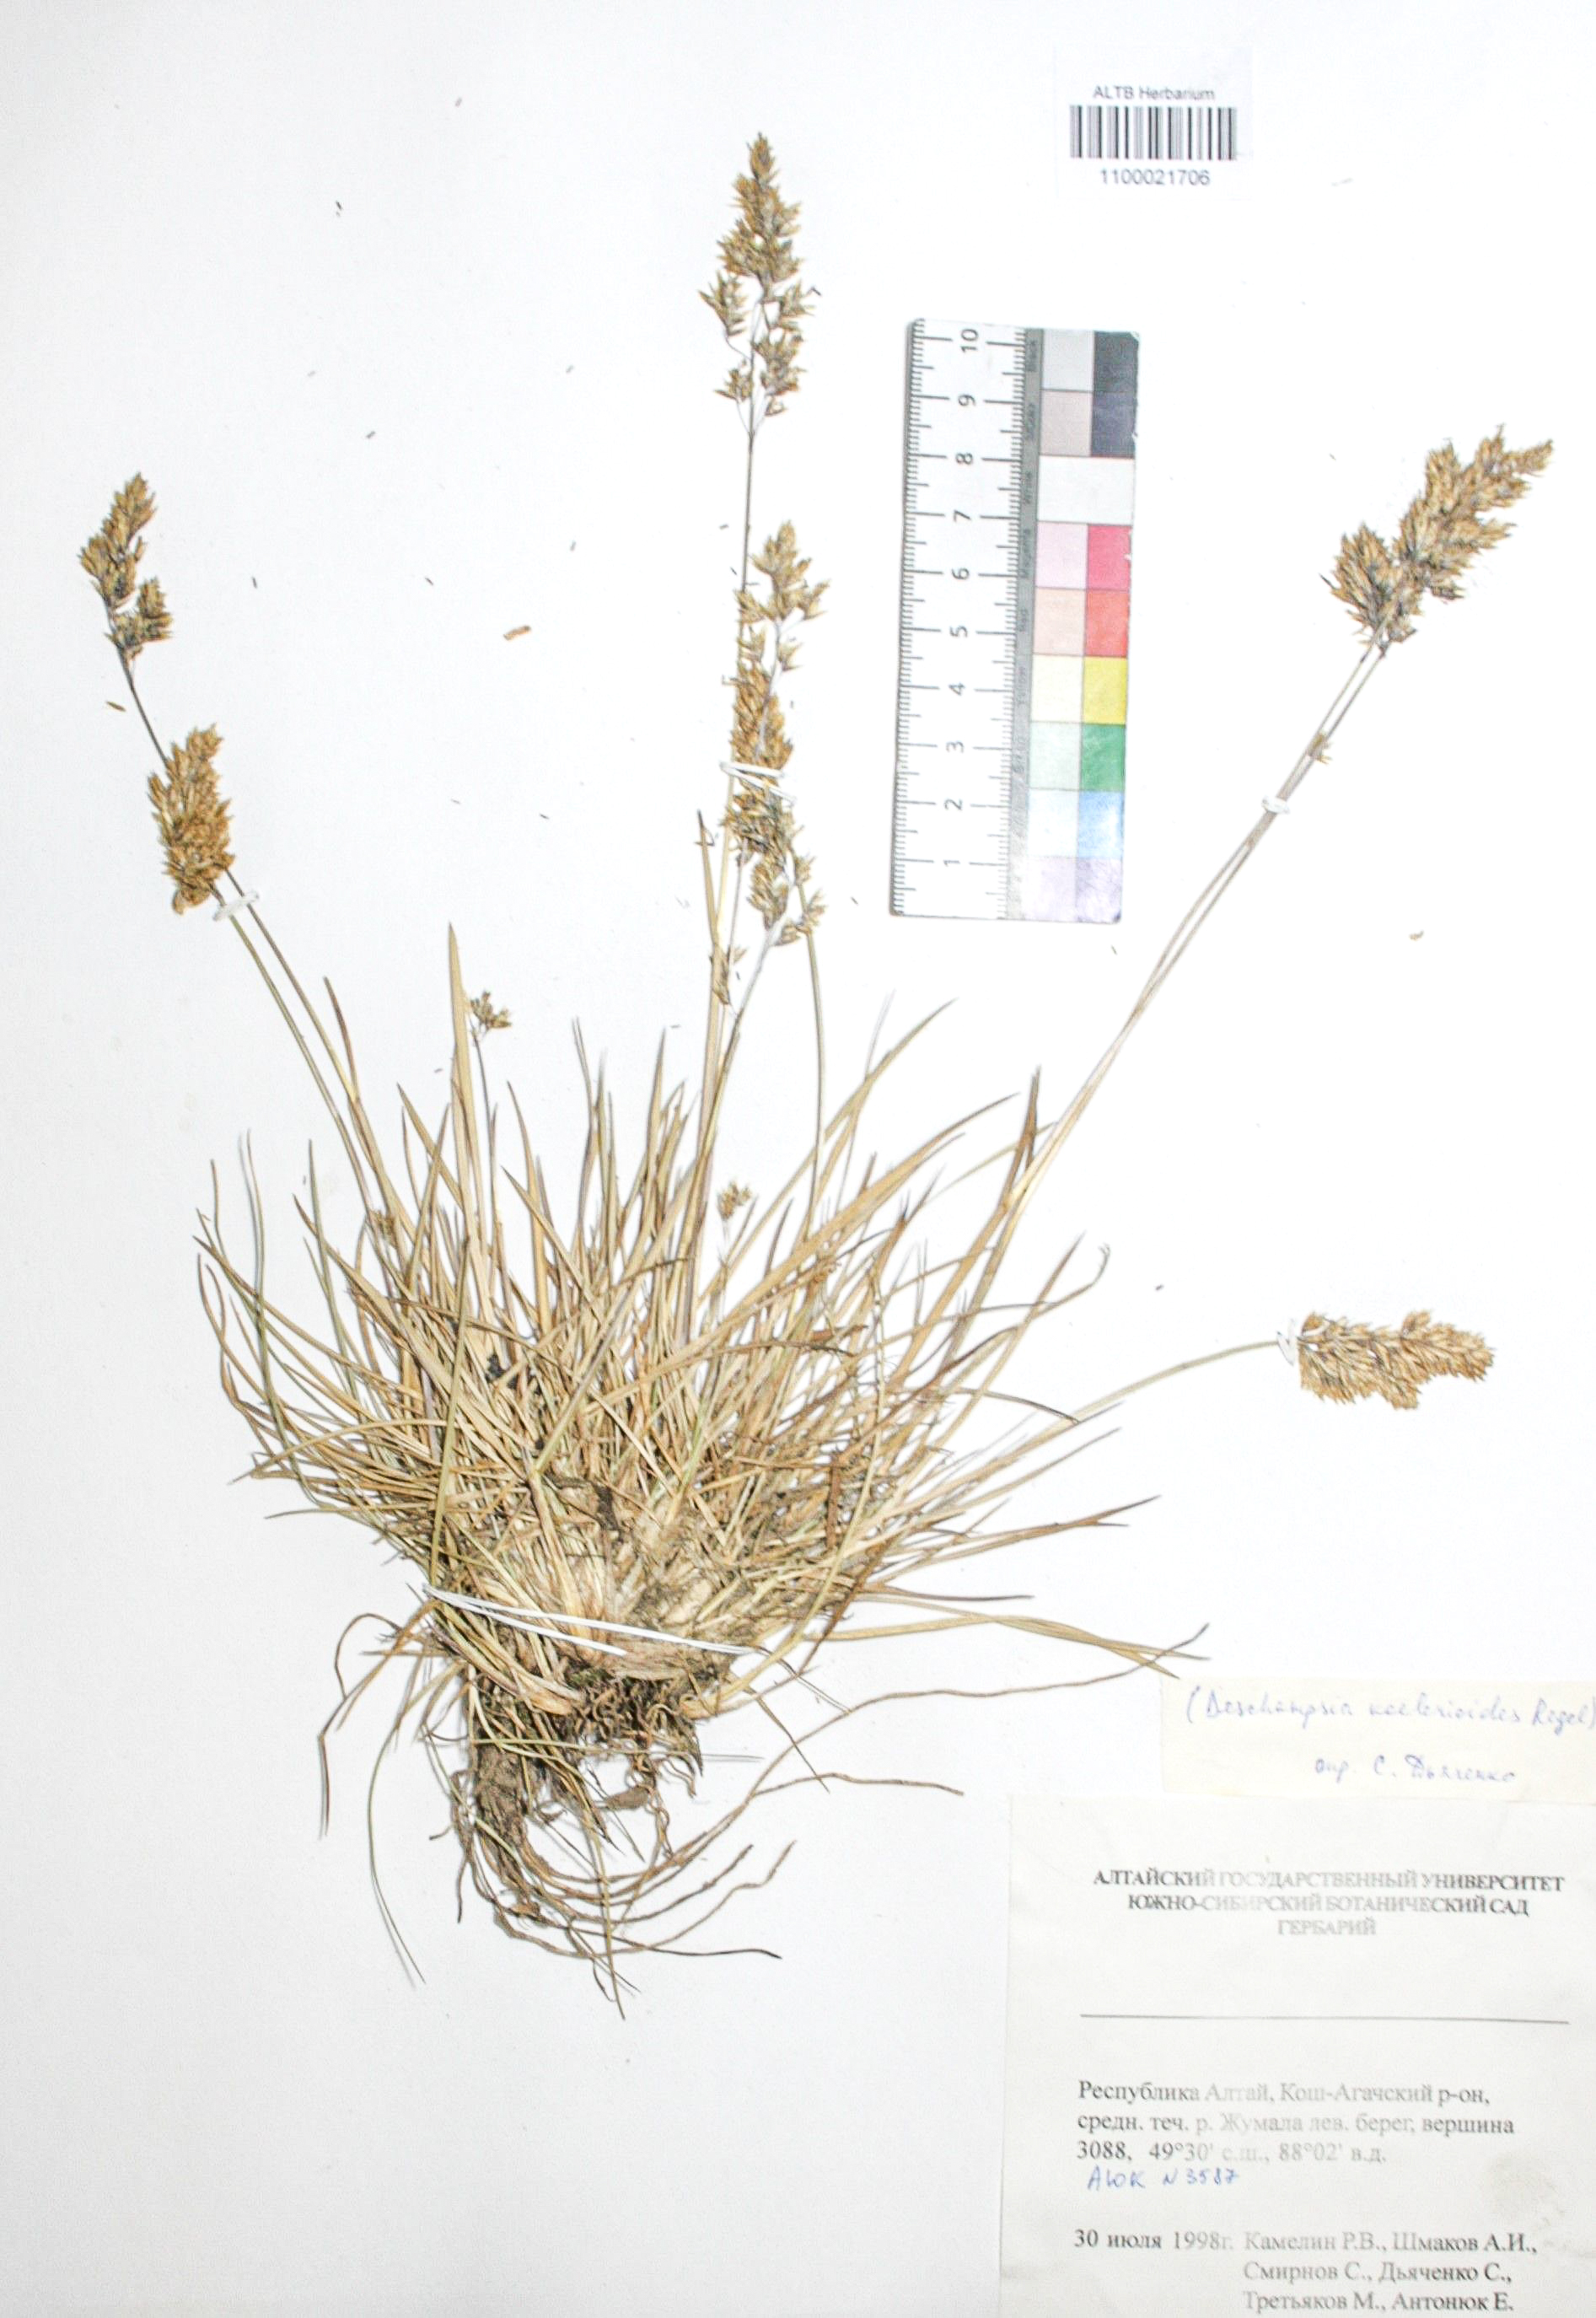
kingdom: Plantae
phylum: Tracheophyta
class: Liliopsida
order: Poales
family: Poaceae
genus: Deschampsia
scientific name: Deschampsia koelerioides
